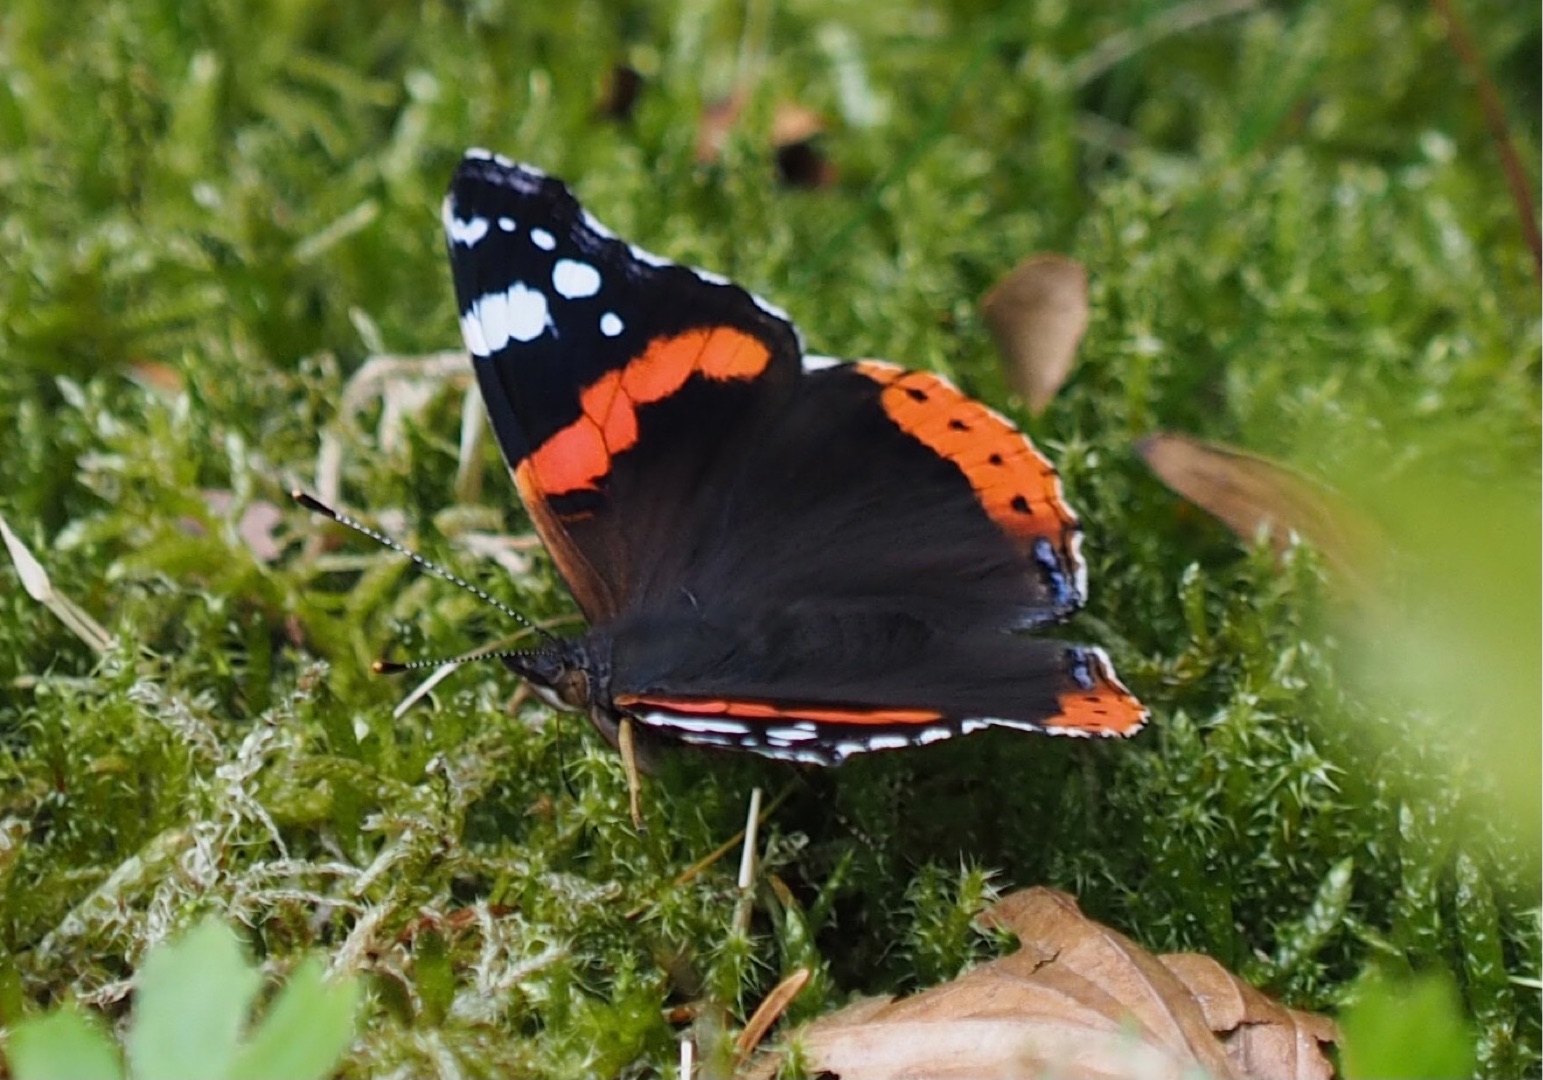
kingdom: Animalia
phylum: Arthropoda
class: Insecta
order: Lepidoptera
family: Nymphalidae
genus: Vanessa
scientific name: Vanessa atalanta
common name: Admiral
